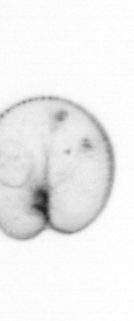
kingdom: Chromista
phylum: Myzozoa
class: Dinophyceae
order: Noctilucales
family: Noctilucaceae
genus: Noctiluca
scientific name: Noctiluca scintillans
